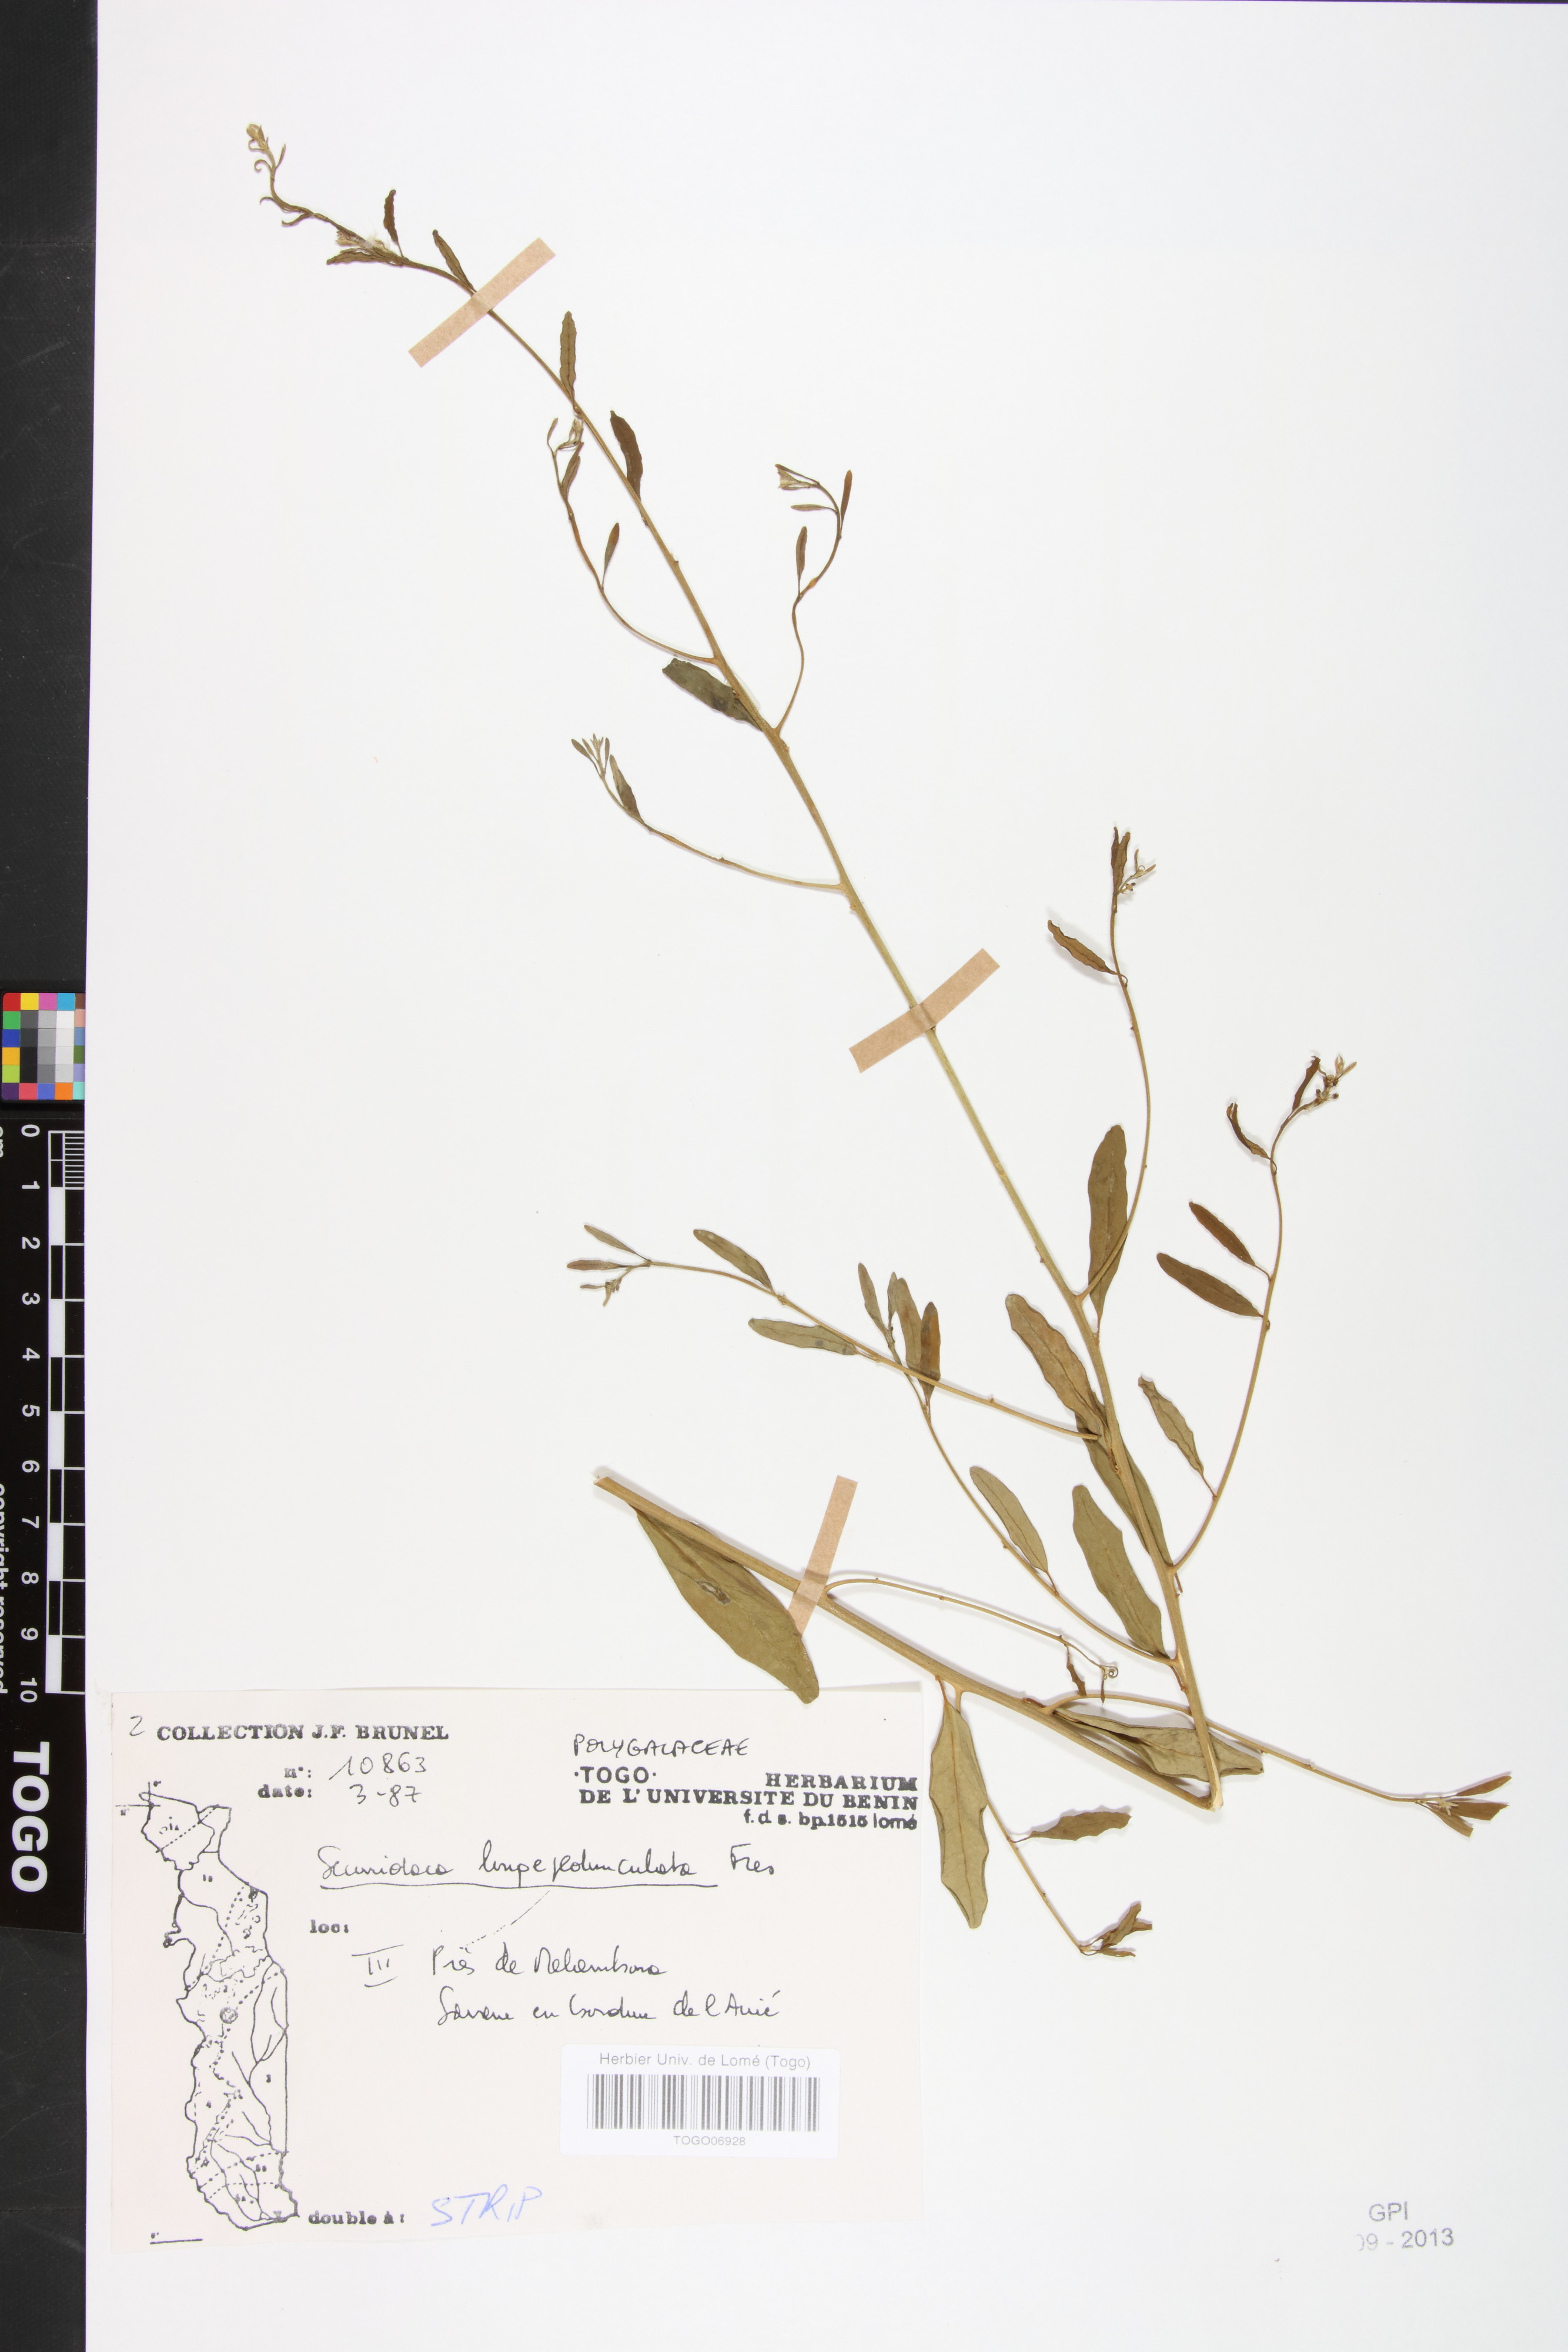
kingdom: Plantae
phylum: Tracheophyta
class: Magnoliopsida
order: Fabales
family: Polygalaceae
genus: Securidaca
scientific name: Securidaca longepedunculata
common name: Violet tree
